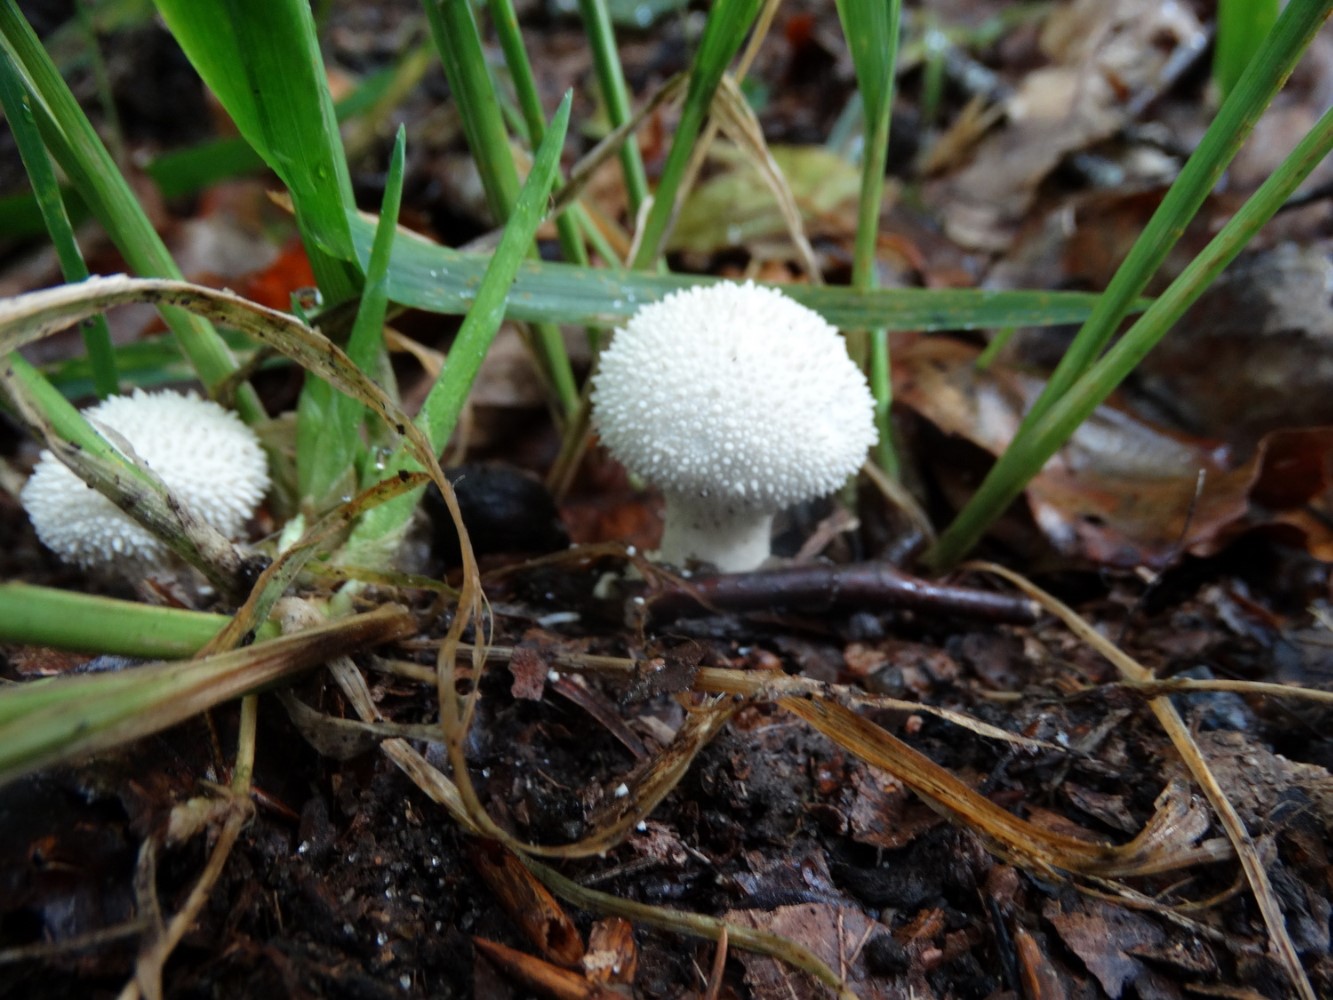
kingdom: Fungi
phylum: Basidiomycota
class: Agaricomycetes
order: Agaricales
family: Lycoperdaceae
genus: Lycoperdon
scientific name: Lycoperdon perlatum
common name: krystal-støvbold
